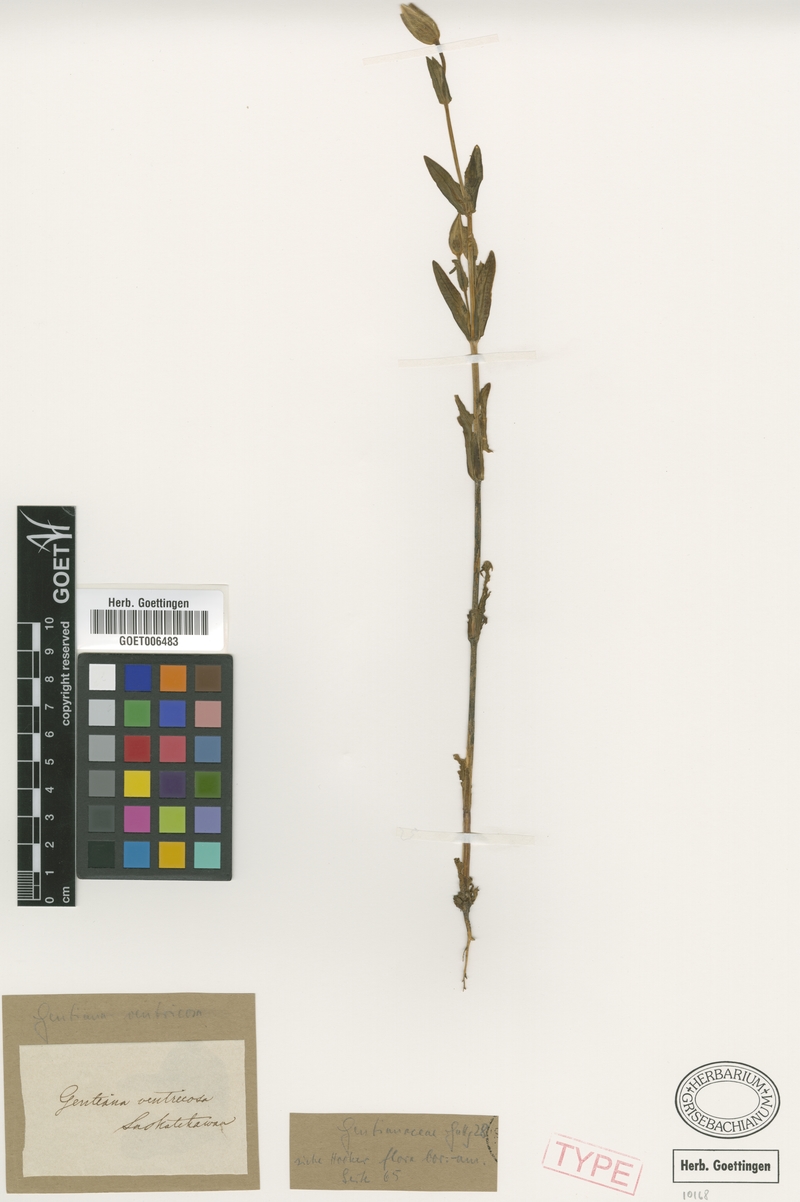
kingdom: Plantae
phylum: Tracheophyta
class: Magnoliopsida
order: Gentianales
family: Gentianaceae
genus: Gentianopsis
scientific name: Gentianopsis crinita
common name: Fringed-gentian
